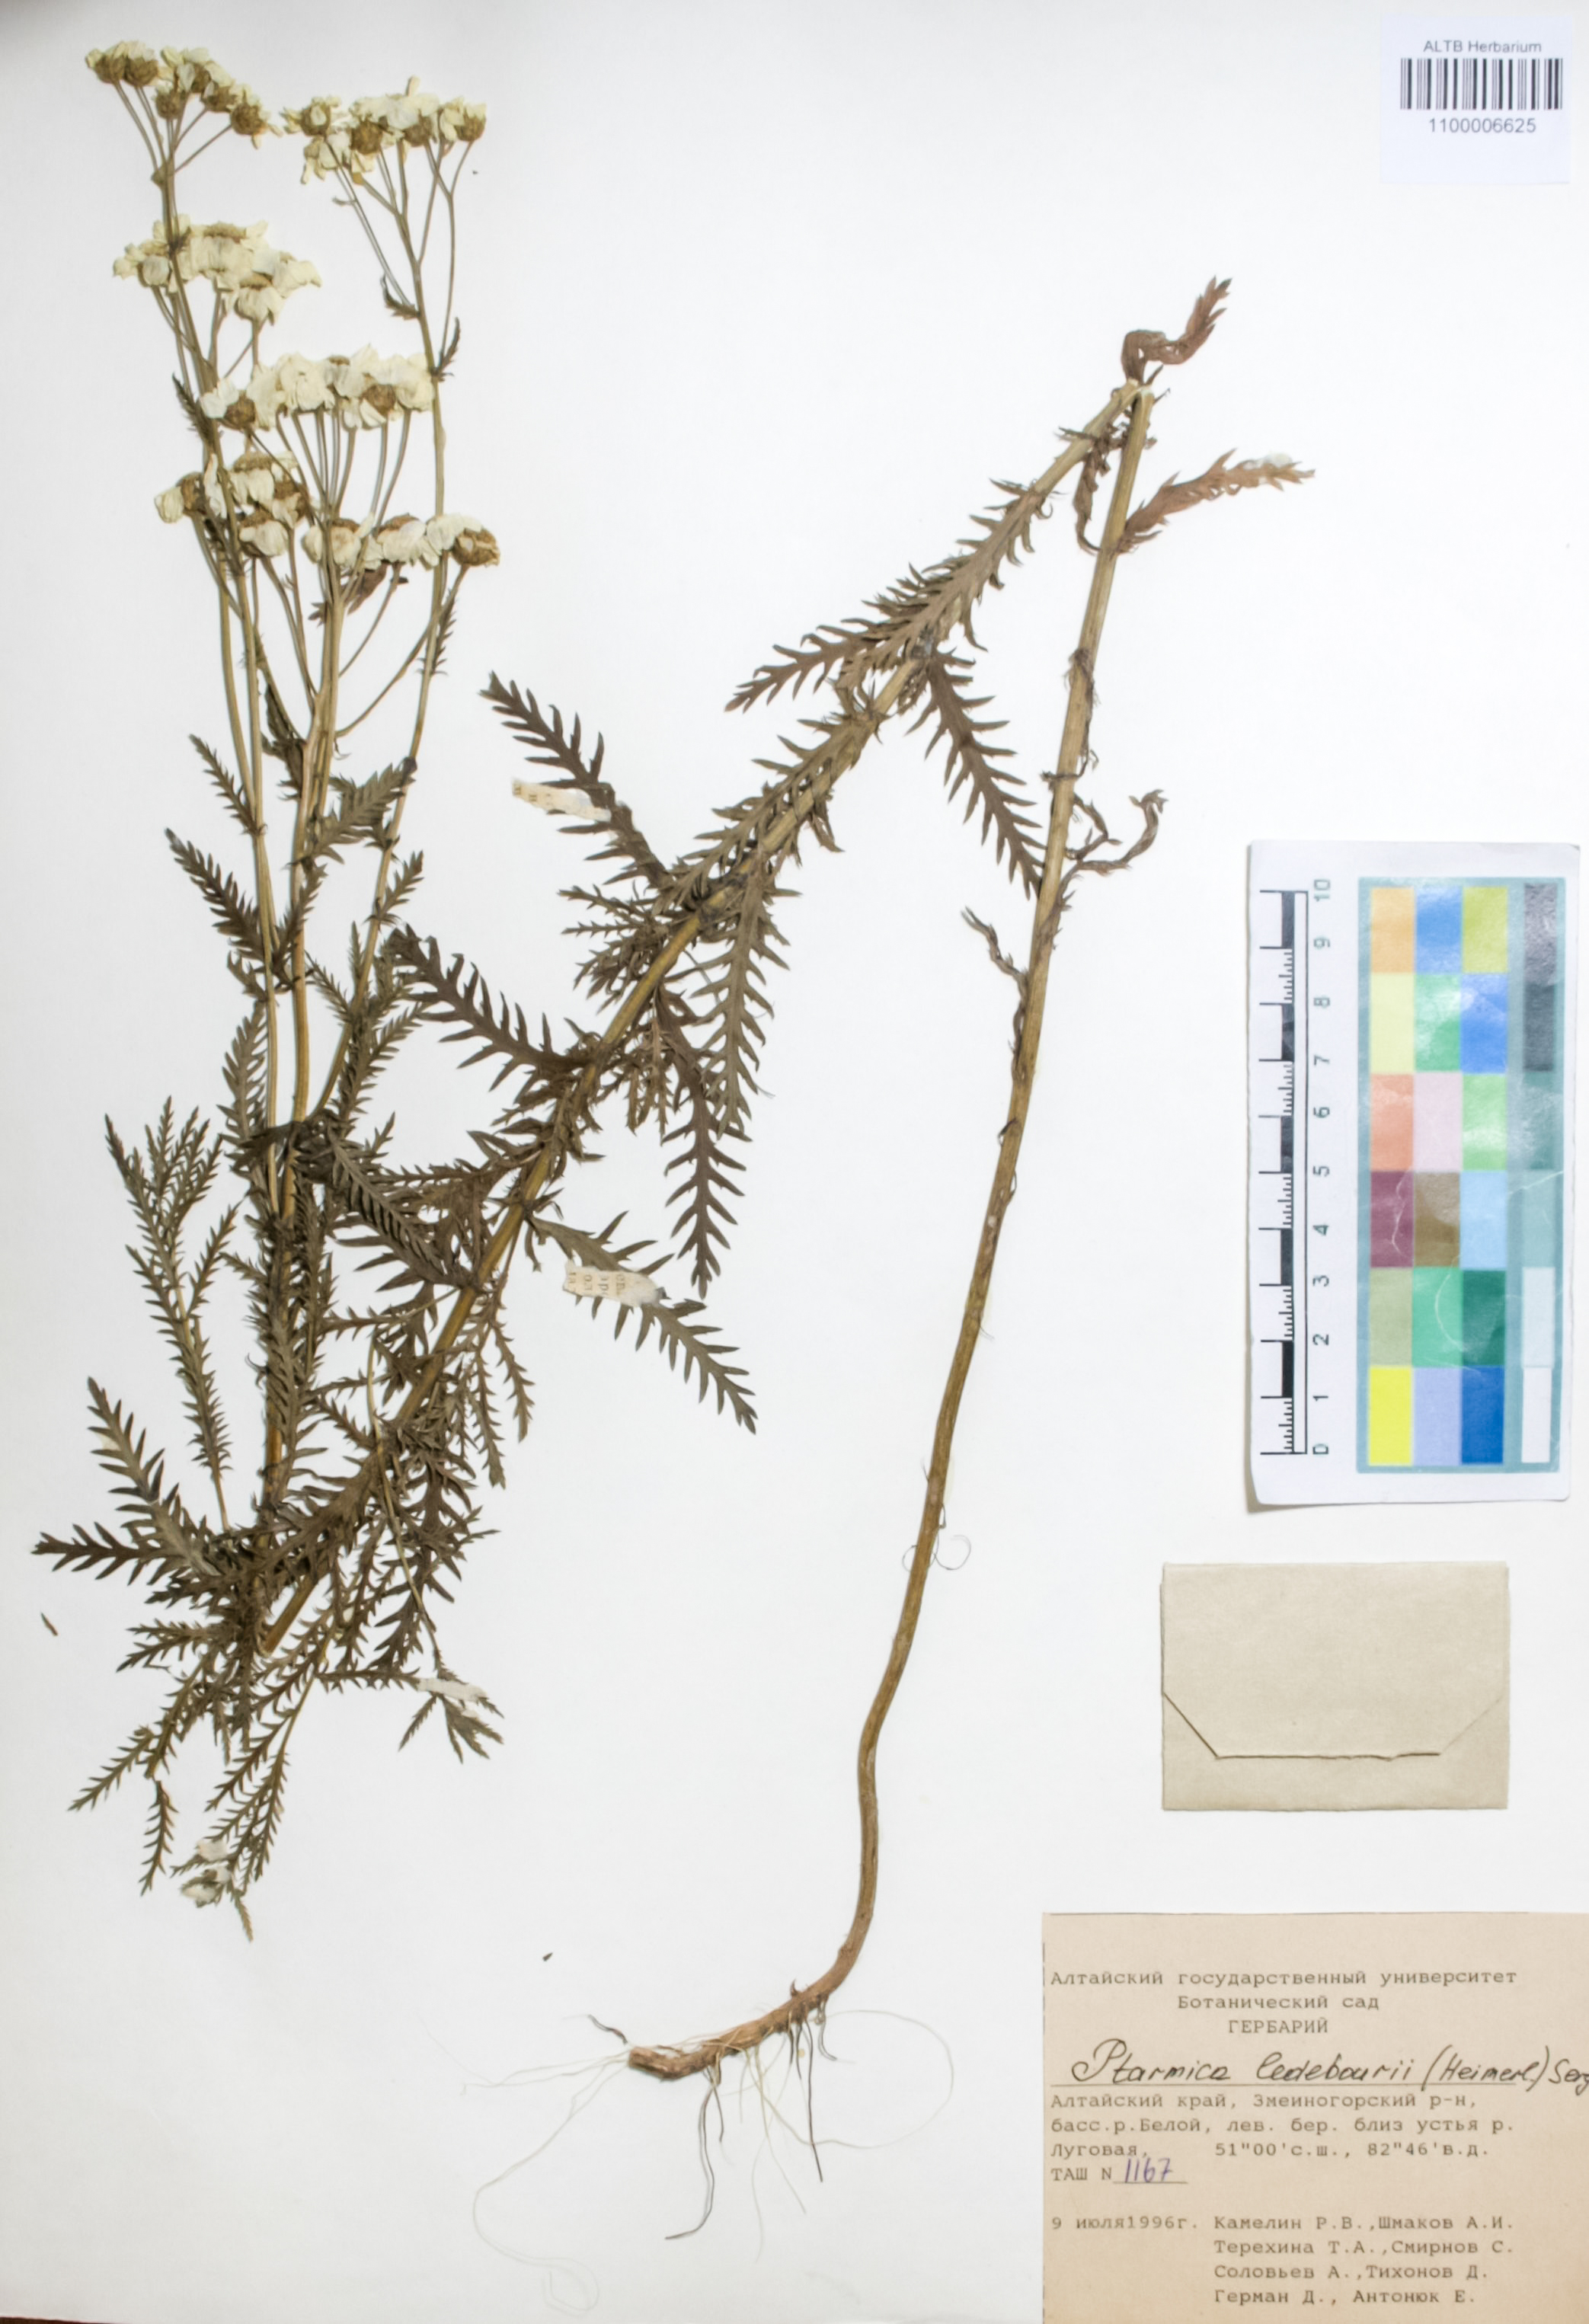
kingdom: Plantae
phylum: Tracheophyta
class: Magnoliopsida
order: Asterales
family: Asteraceae
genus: Achillea
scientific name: Achillea ledebourii
